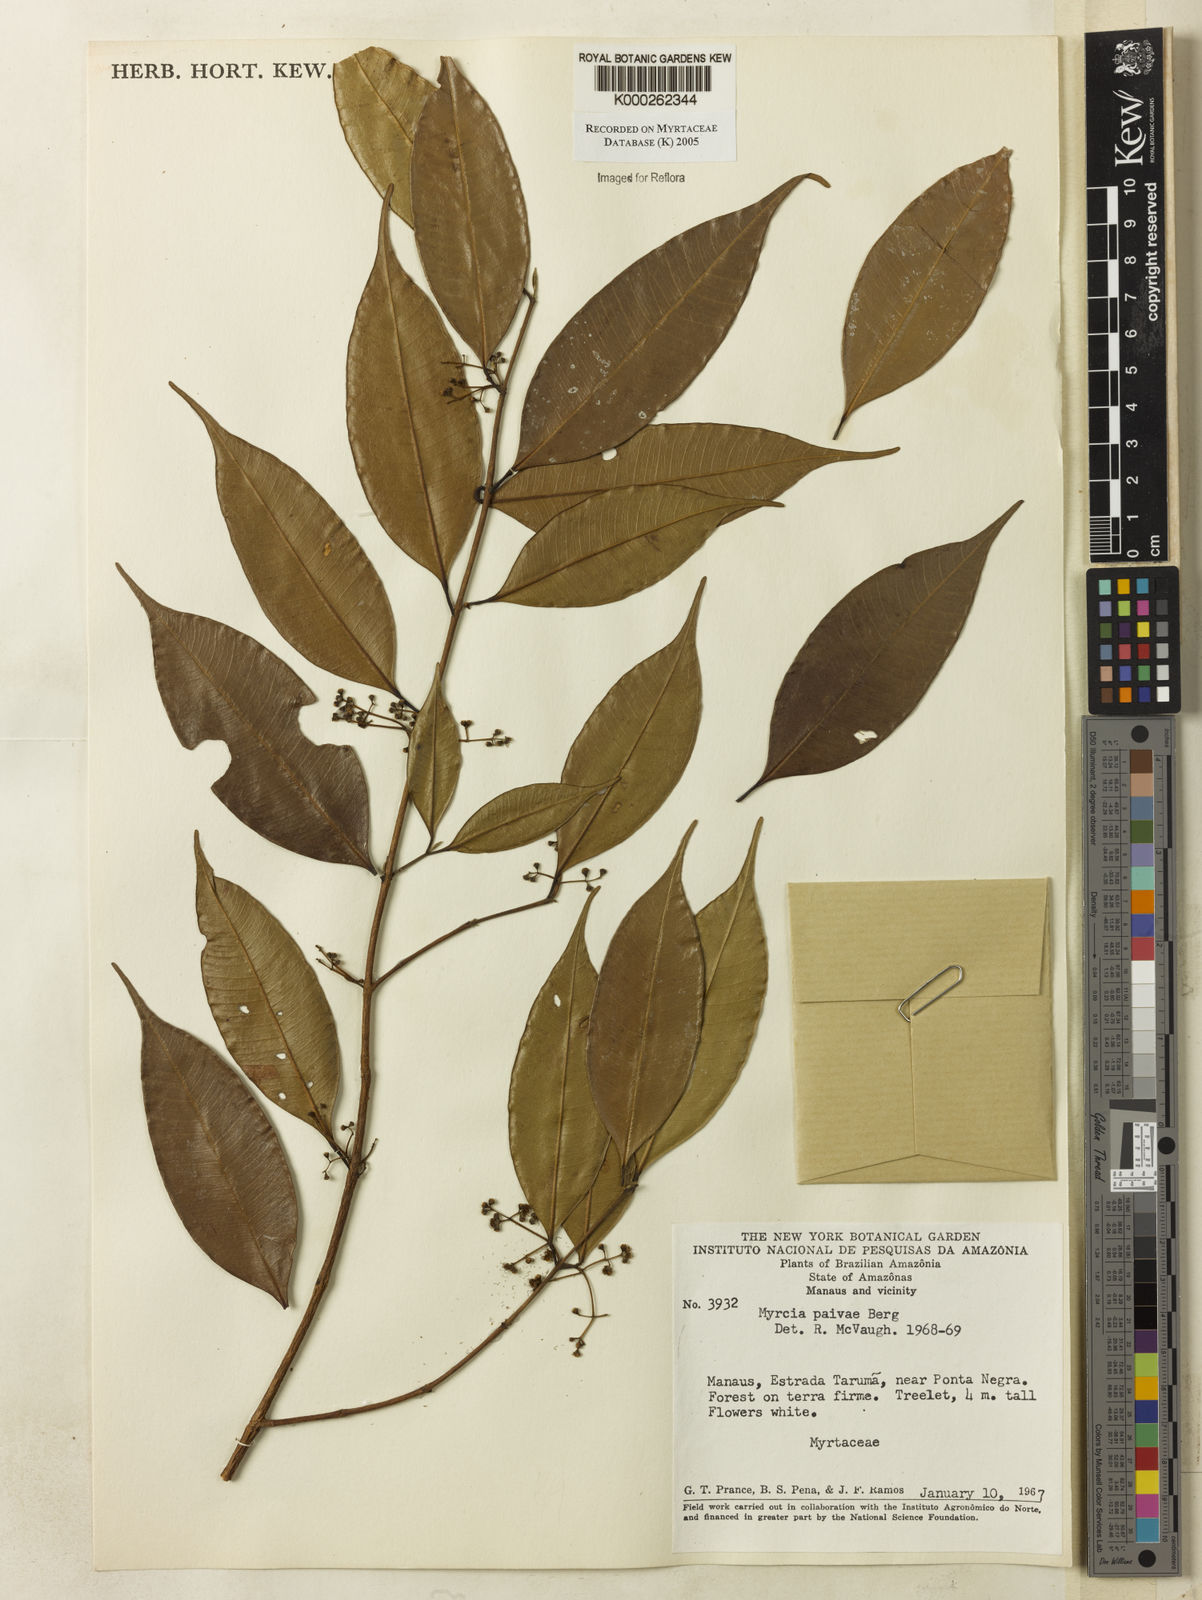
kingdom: Plantae
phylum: Tracheophyta
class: Magnoliopsida
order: Myrtales
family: Myrtaceae
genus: Myrcia
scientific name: Myrcia paivae
